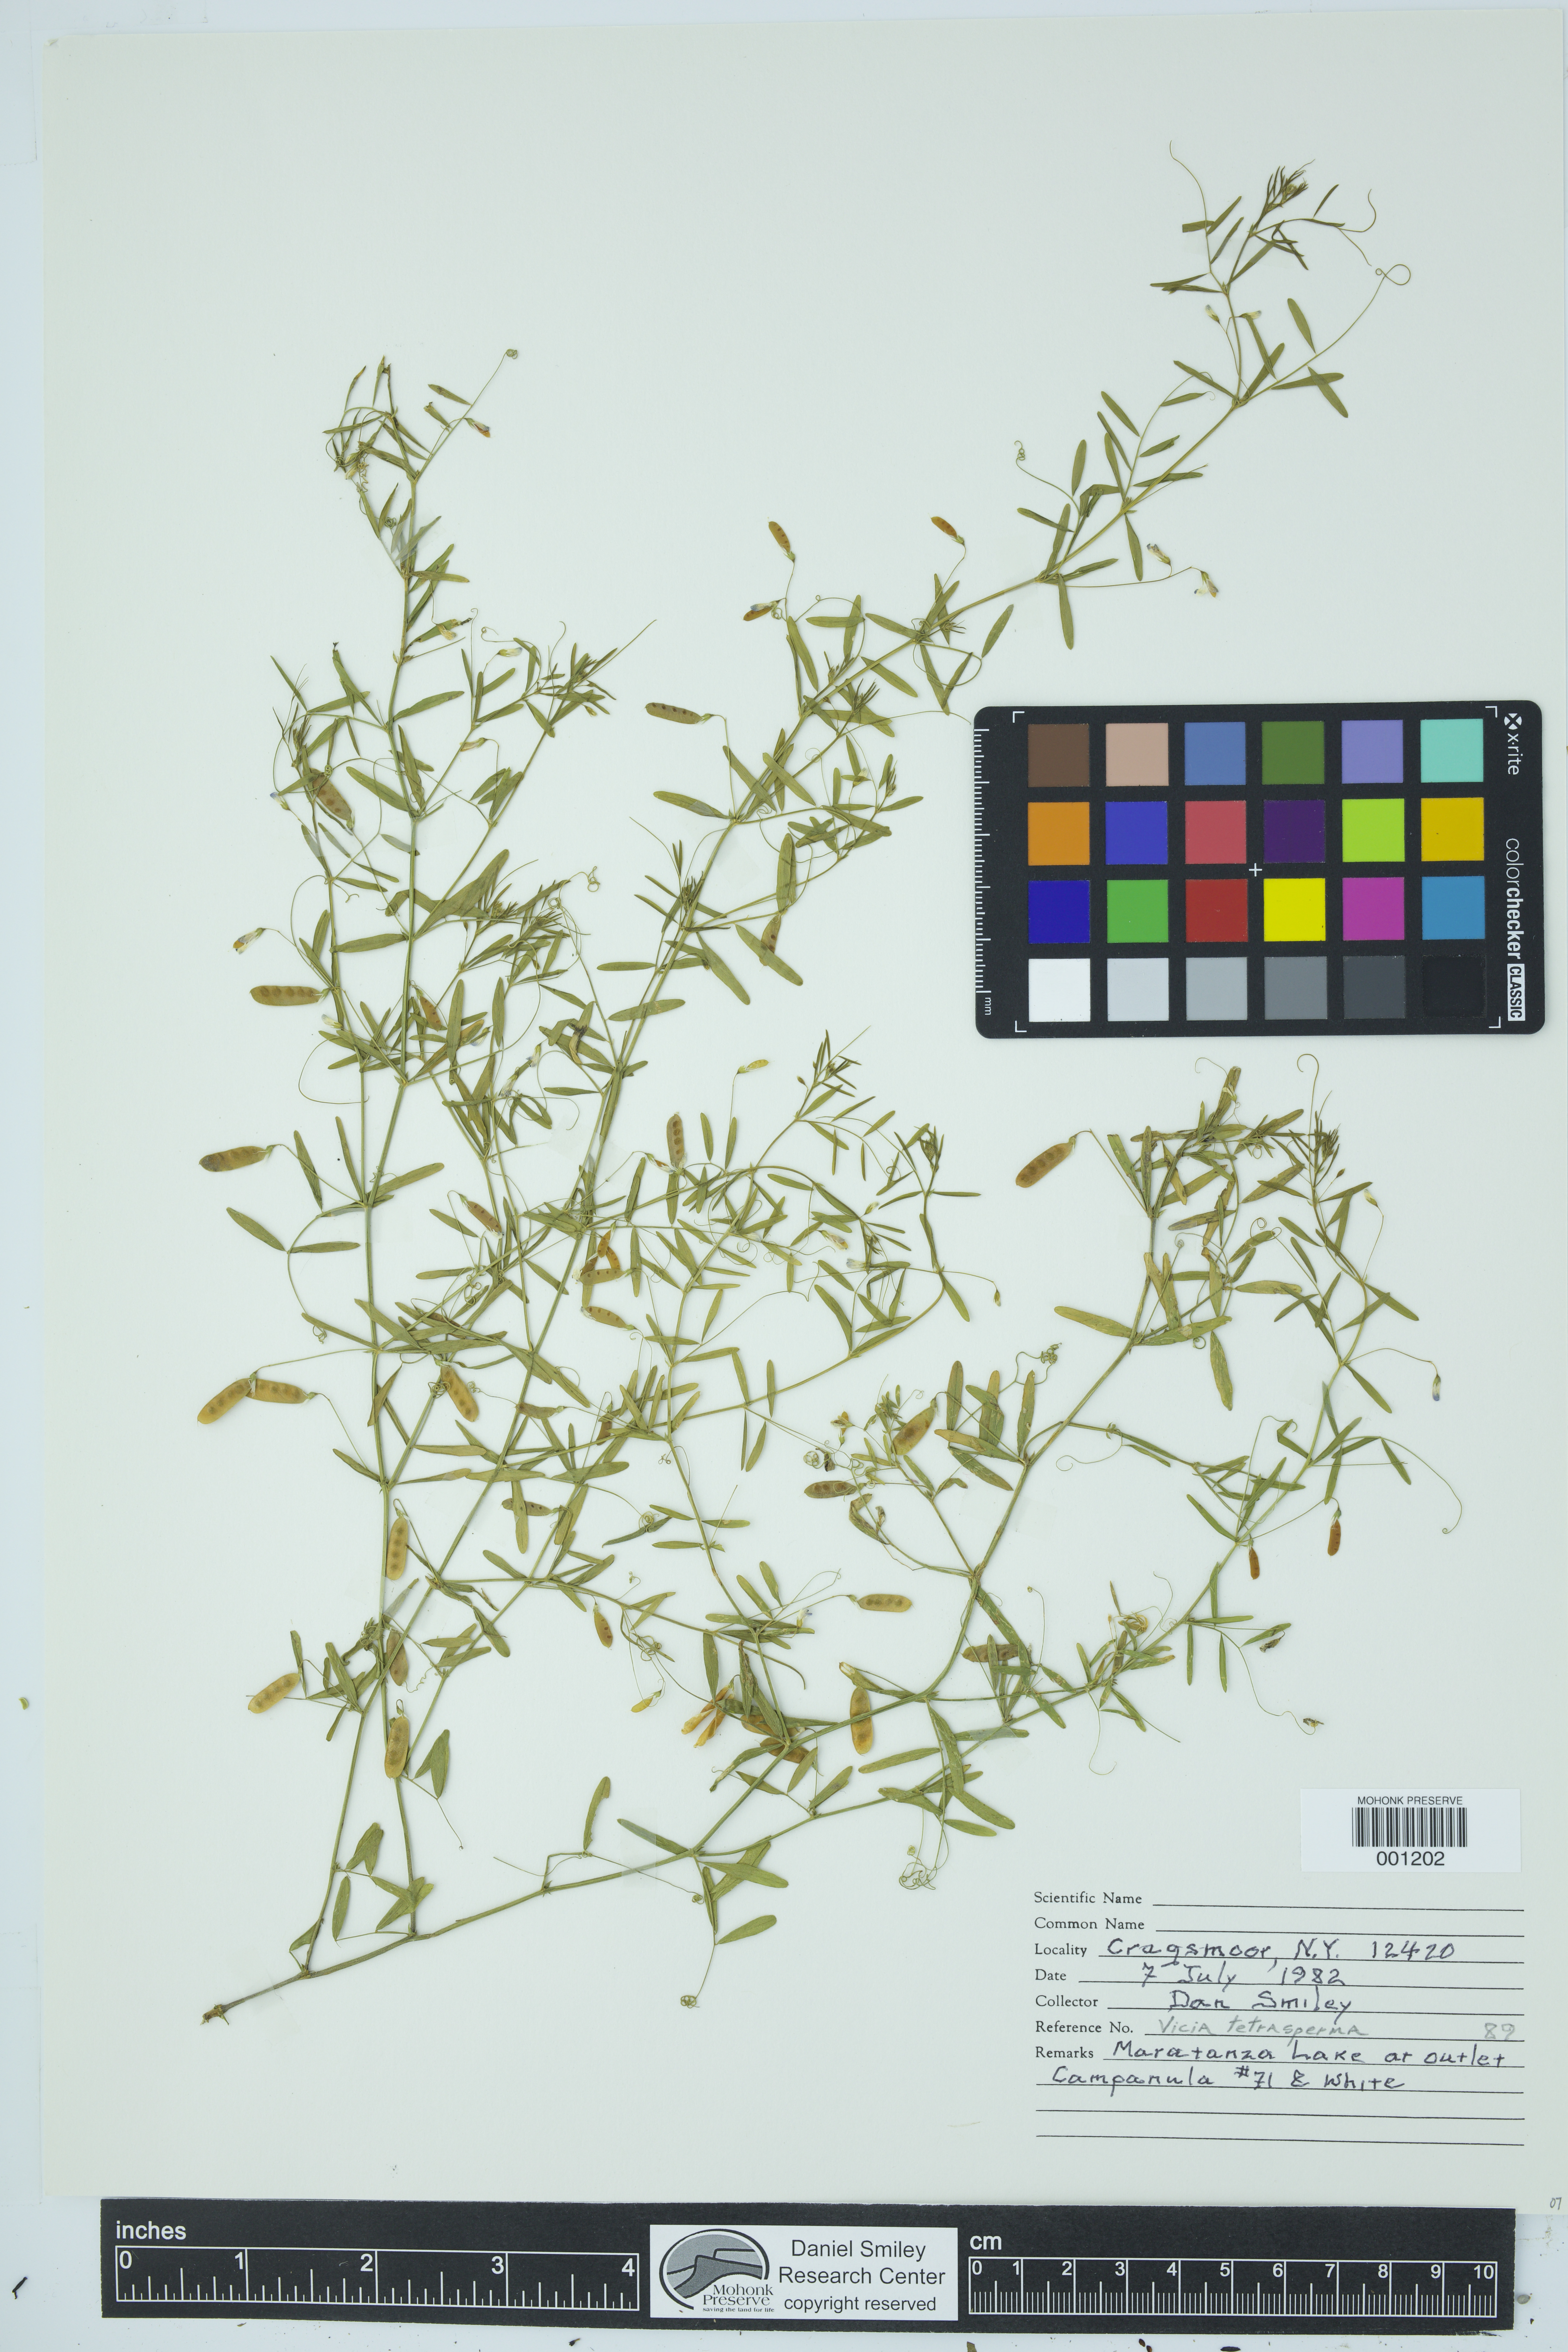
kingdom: Plantae
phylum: Tracheophyta
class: Magnoliopsida
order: Fabales
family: Fabaceae
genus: Vicia
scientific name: Vicia tetrasperma
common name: Smooth tare
